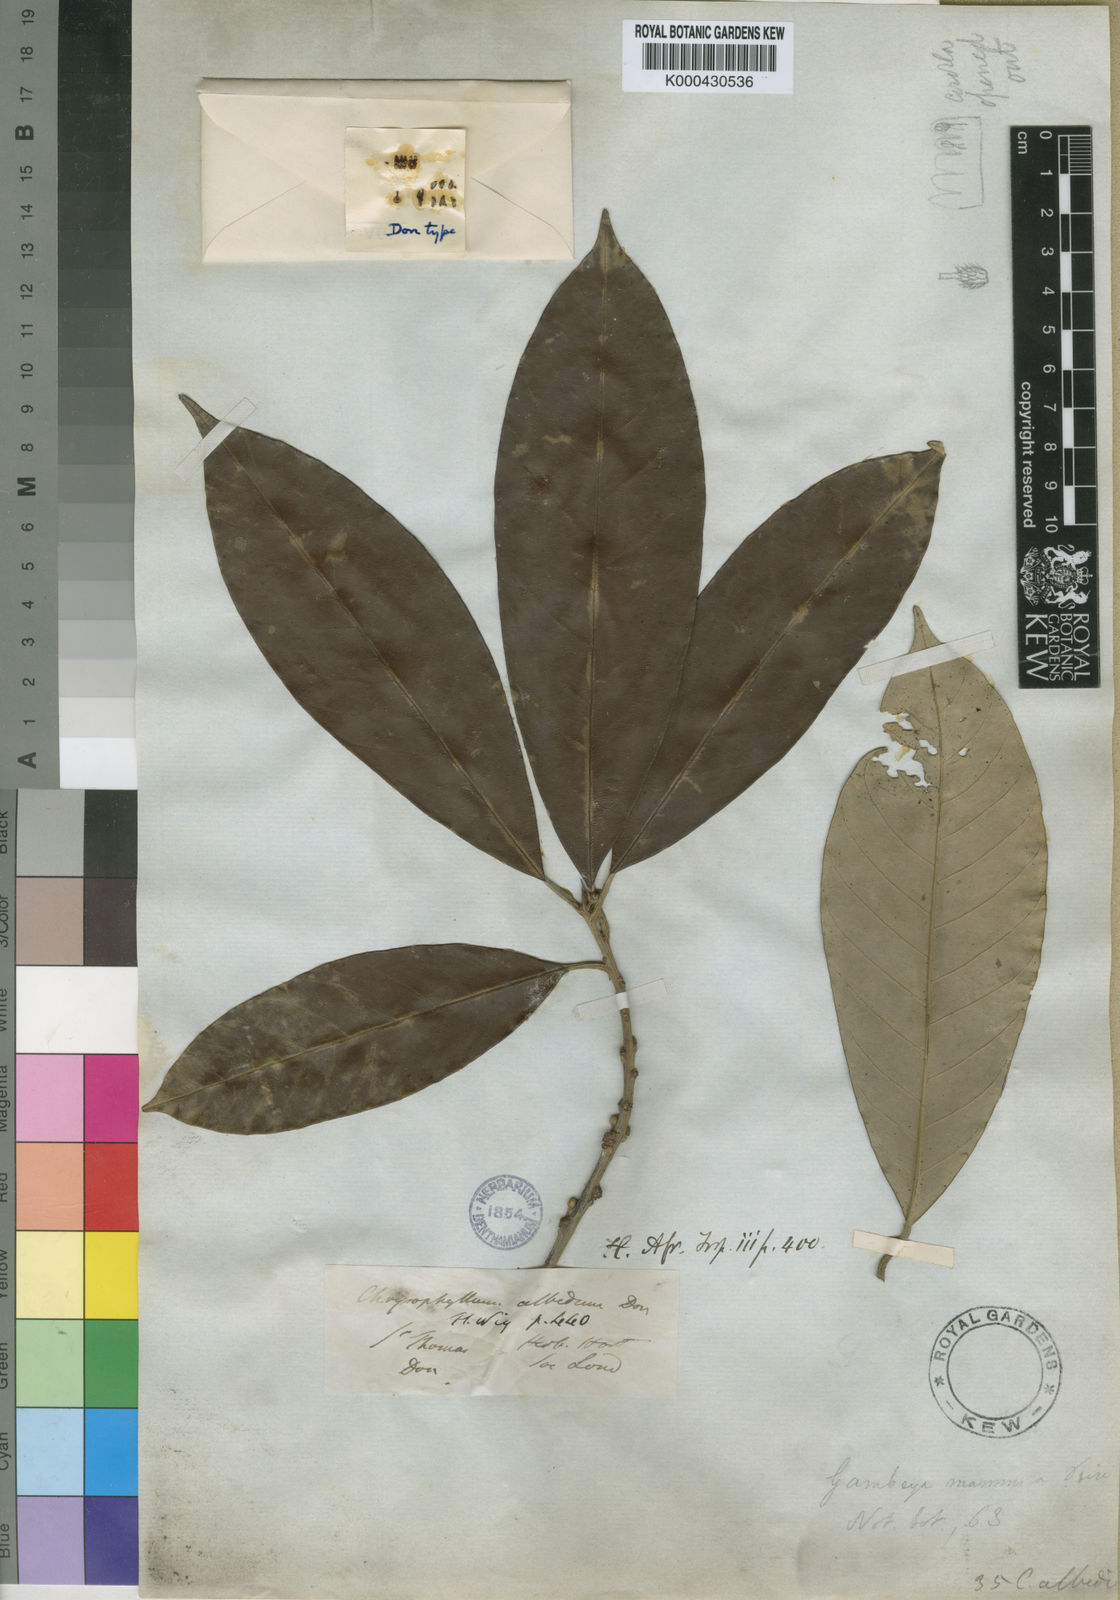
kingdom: Plantae
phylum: Tracheophyta
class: Magnoliopsida
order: Ericales
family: Sapotaceae
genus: Gambeya
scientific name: Gambeya albida
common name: White star apple
